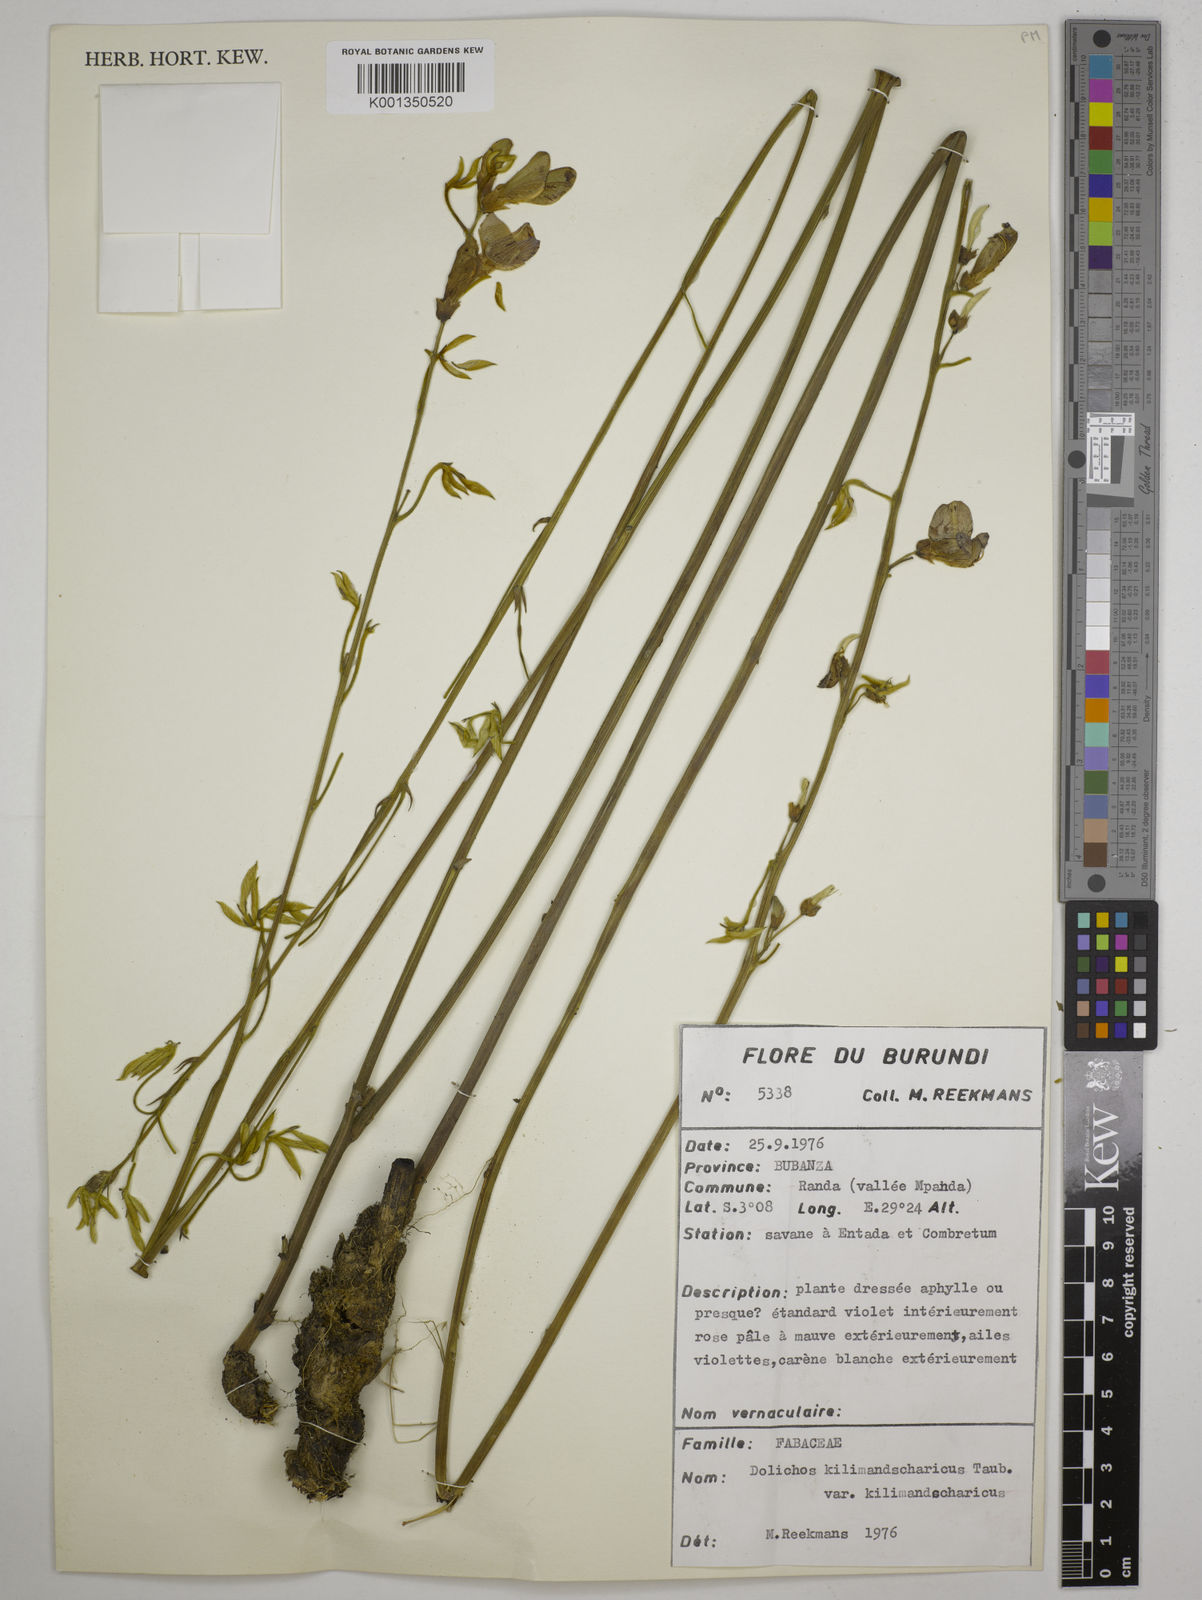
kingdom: Plantae
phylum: Tracheophyta
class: Magnoliopsida
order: Fabales
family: Fabaceae
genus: Dolichos
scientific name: Dolichos
